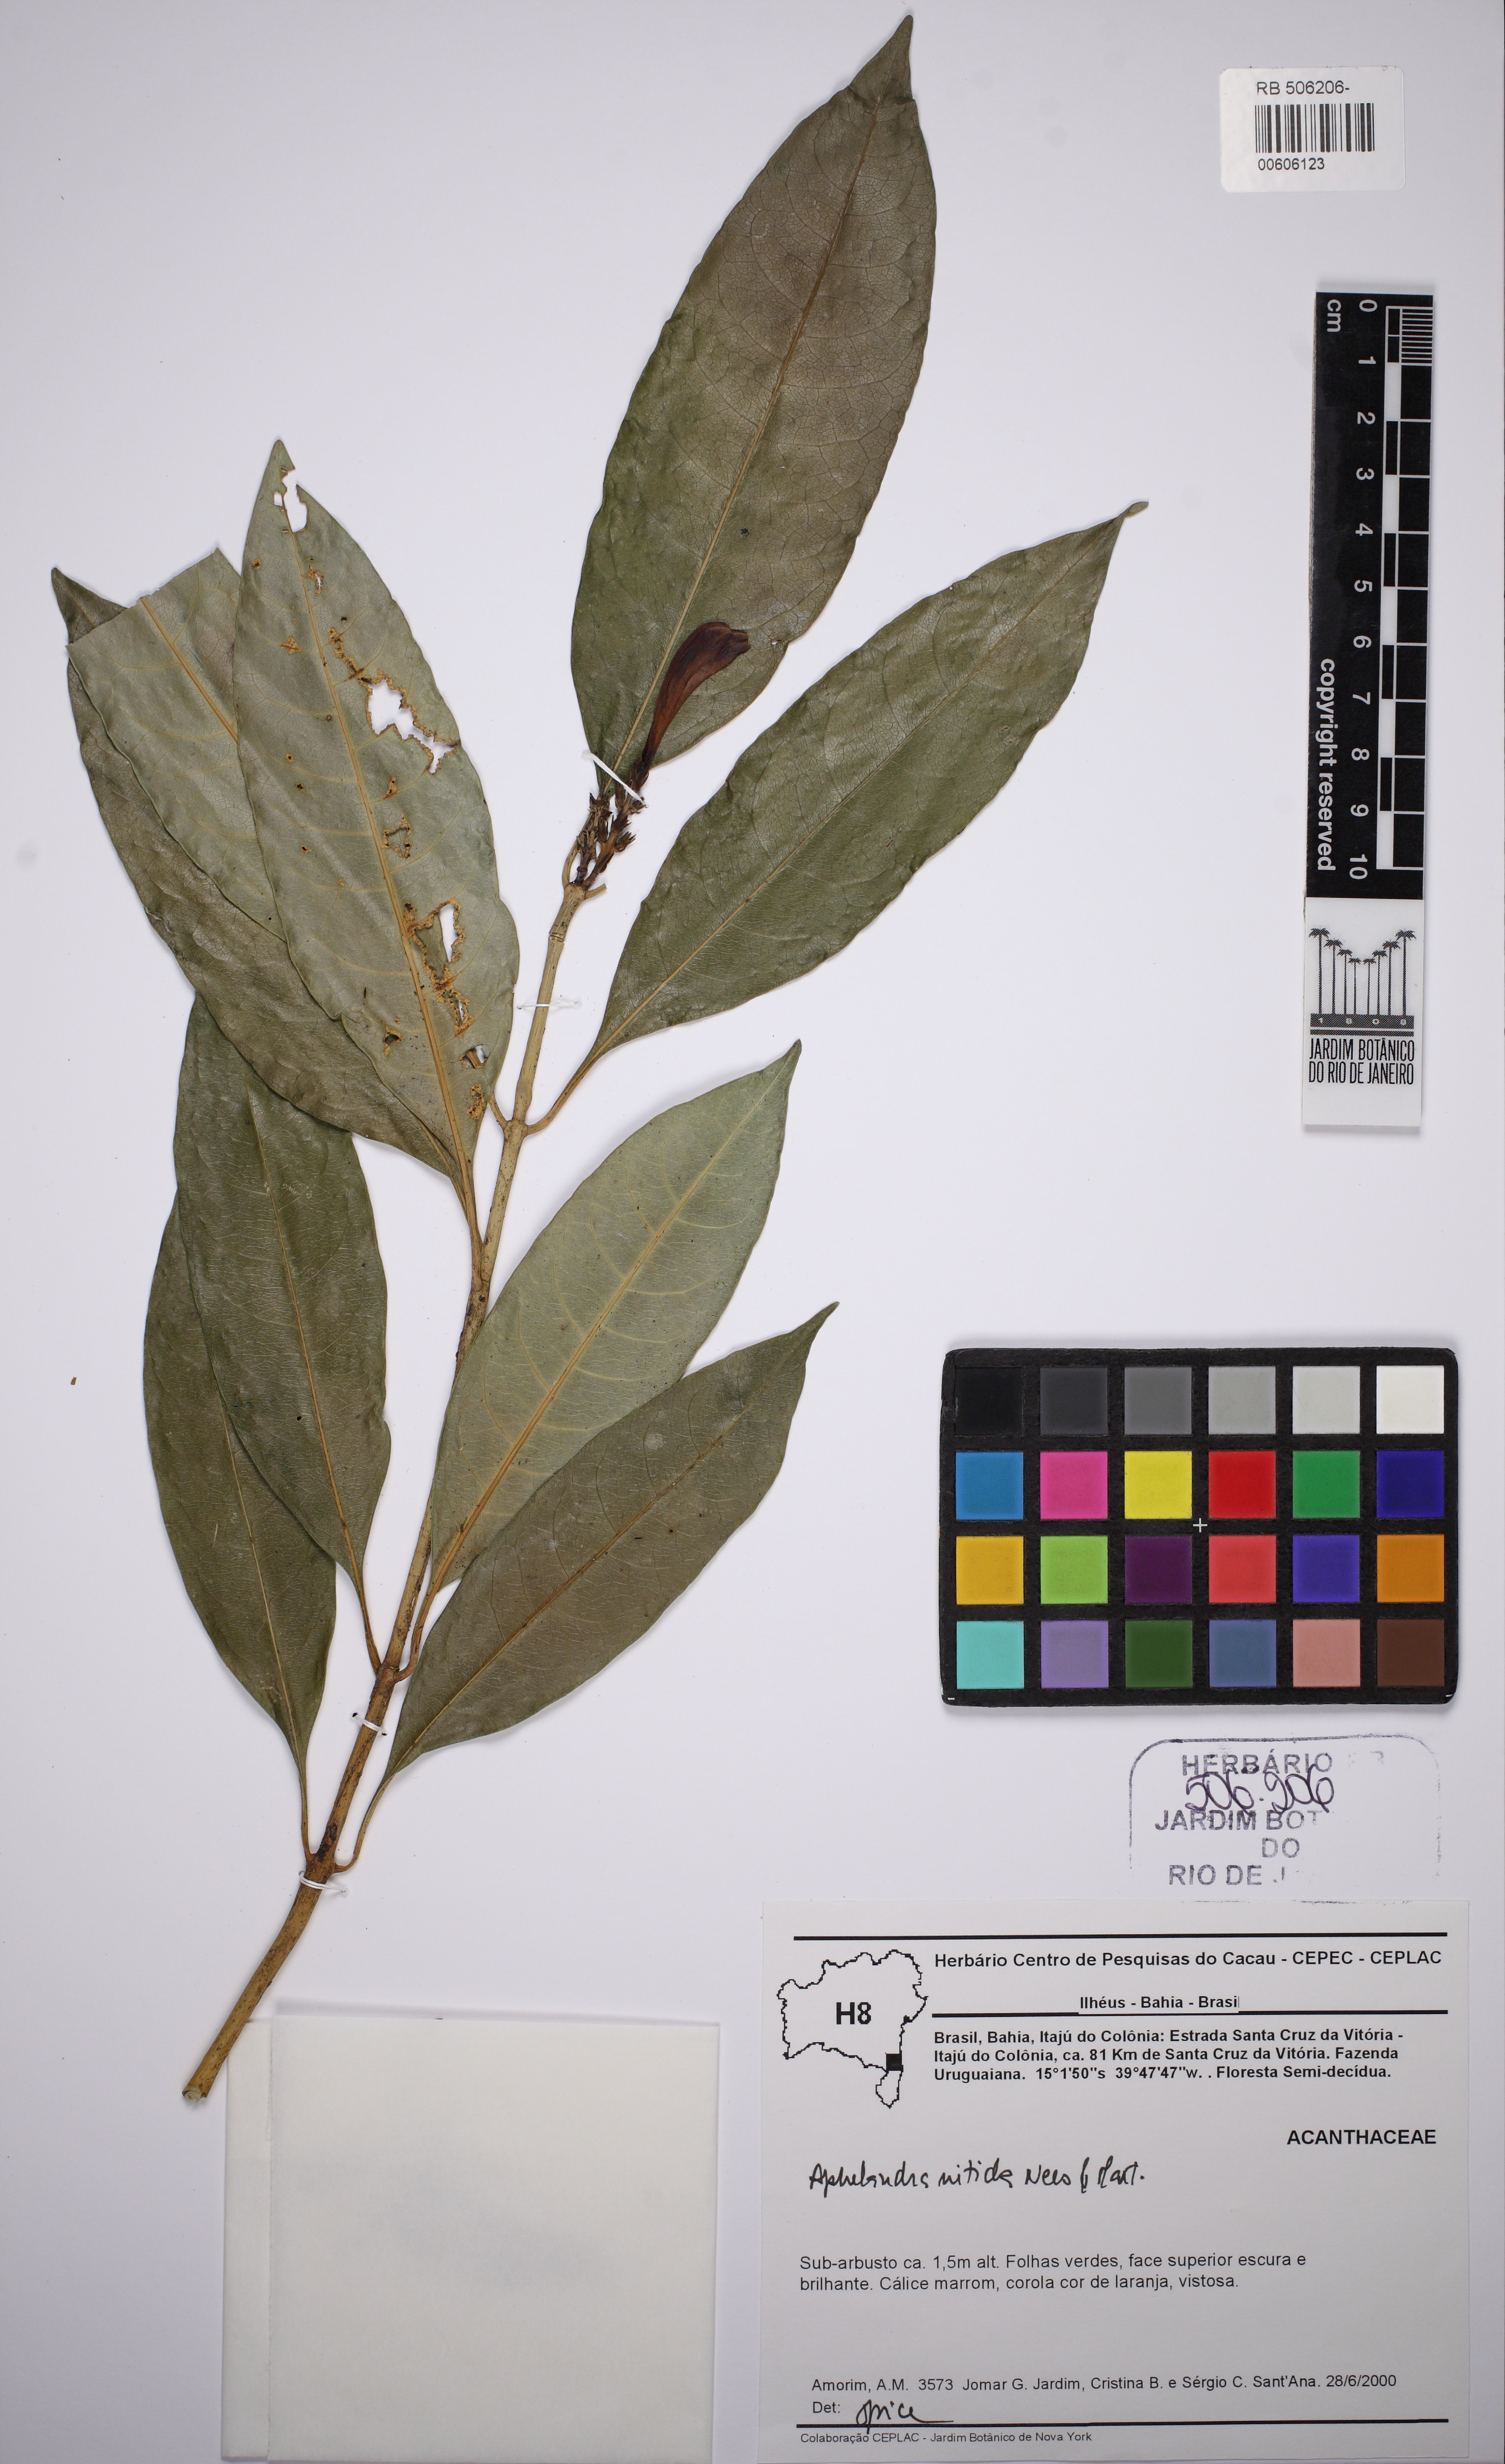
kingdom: Plantae
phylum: Tracheophyta
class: Magnoliopsida
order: Lamiales
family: Acanthaceae
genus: Aphelandra
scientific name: Aphelandra nitida
